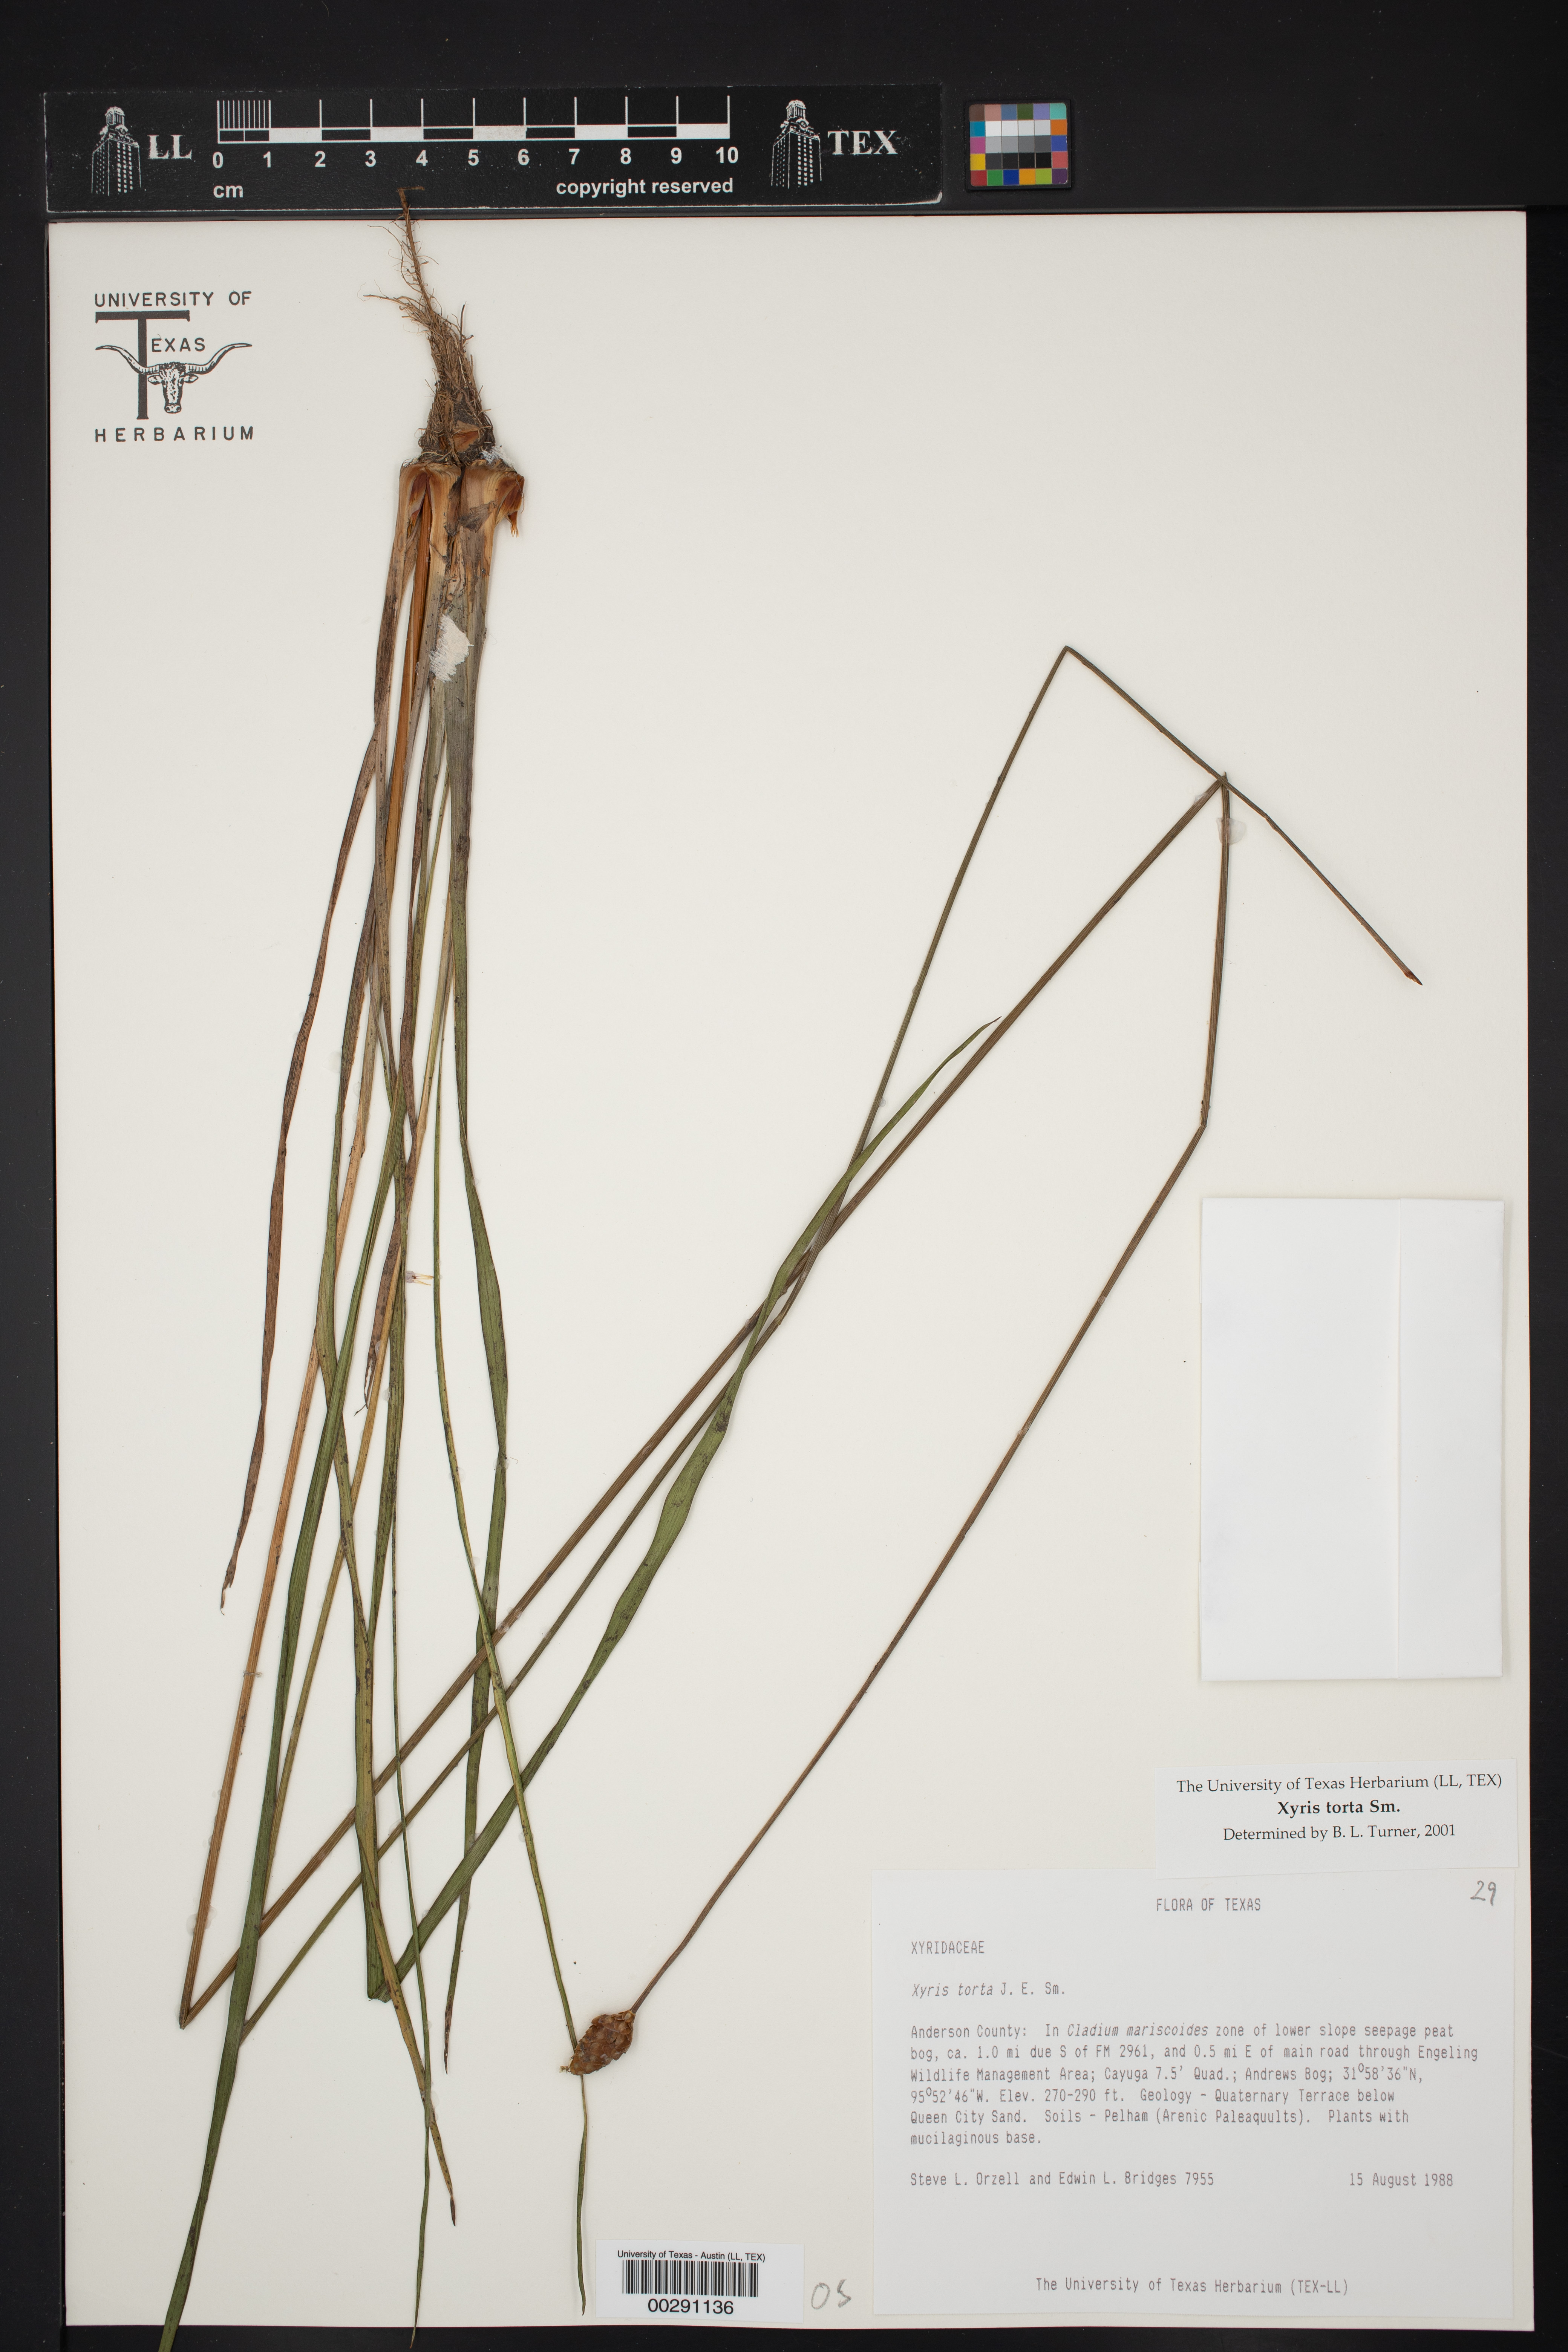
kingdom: Plantae
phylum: Tracheophyta
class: Liliopsida
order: Poales
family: Xyridaceae
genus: Xyris
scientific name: Xyris torta
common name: Common yelloweyed grass
